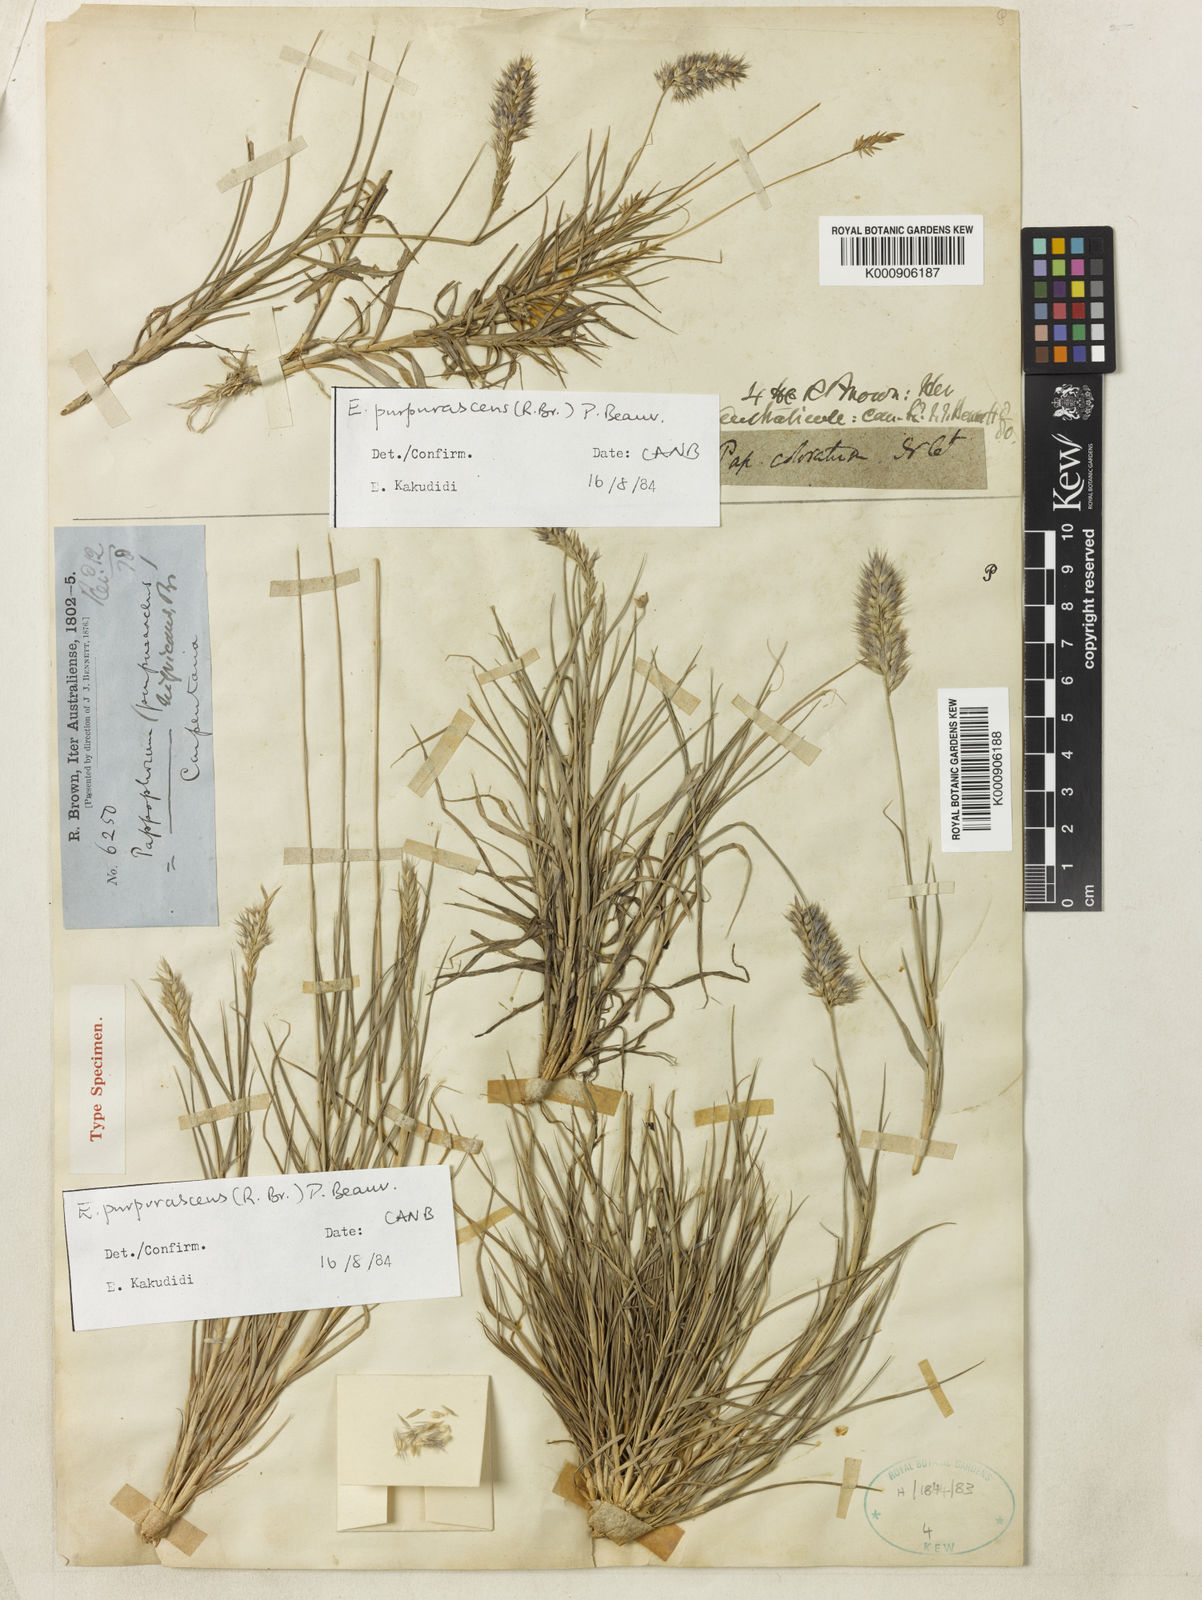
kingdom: Plantae
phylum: Tracheophyta
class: Liliopsida
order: Poales
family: Poaceae
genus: Enneapogon
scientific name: Enneapogon purpurascens
